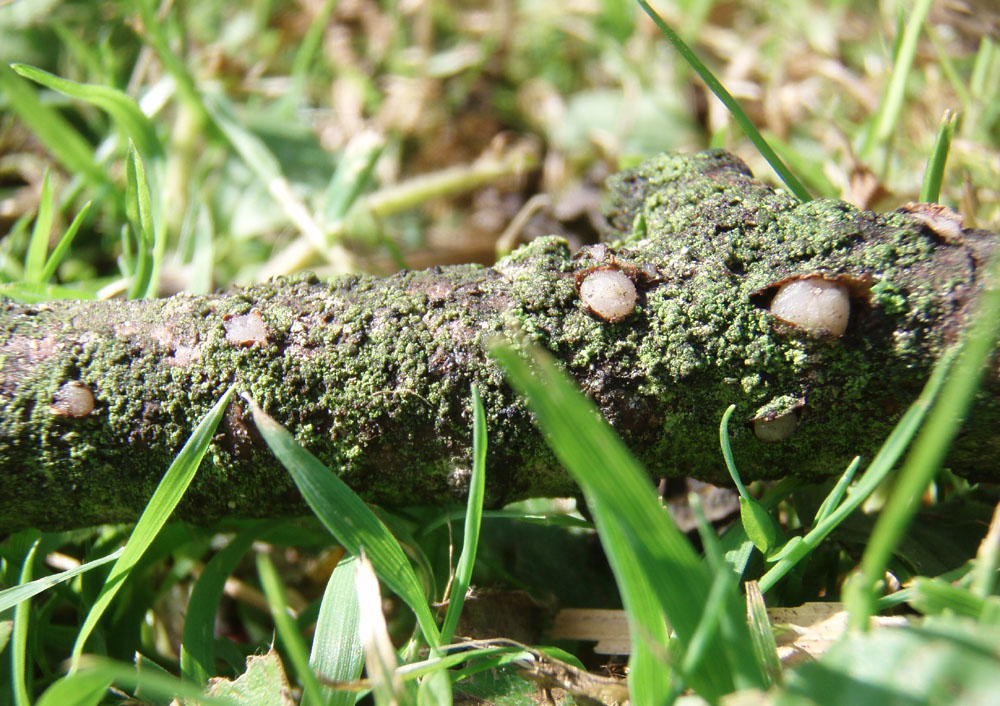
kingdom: Fungi
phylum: Basidiomycota
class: Pucciniomycetes
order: Platygloeales
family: Platygloeaceae
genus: Platygloea
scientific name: Platygloea disciformis
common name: linde-slimklat
